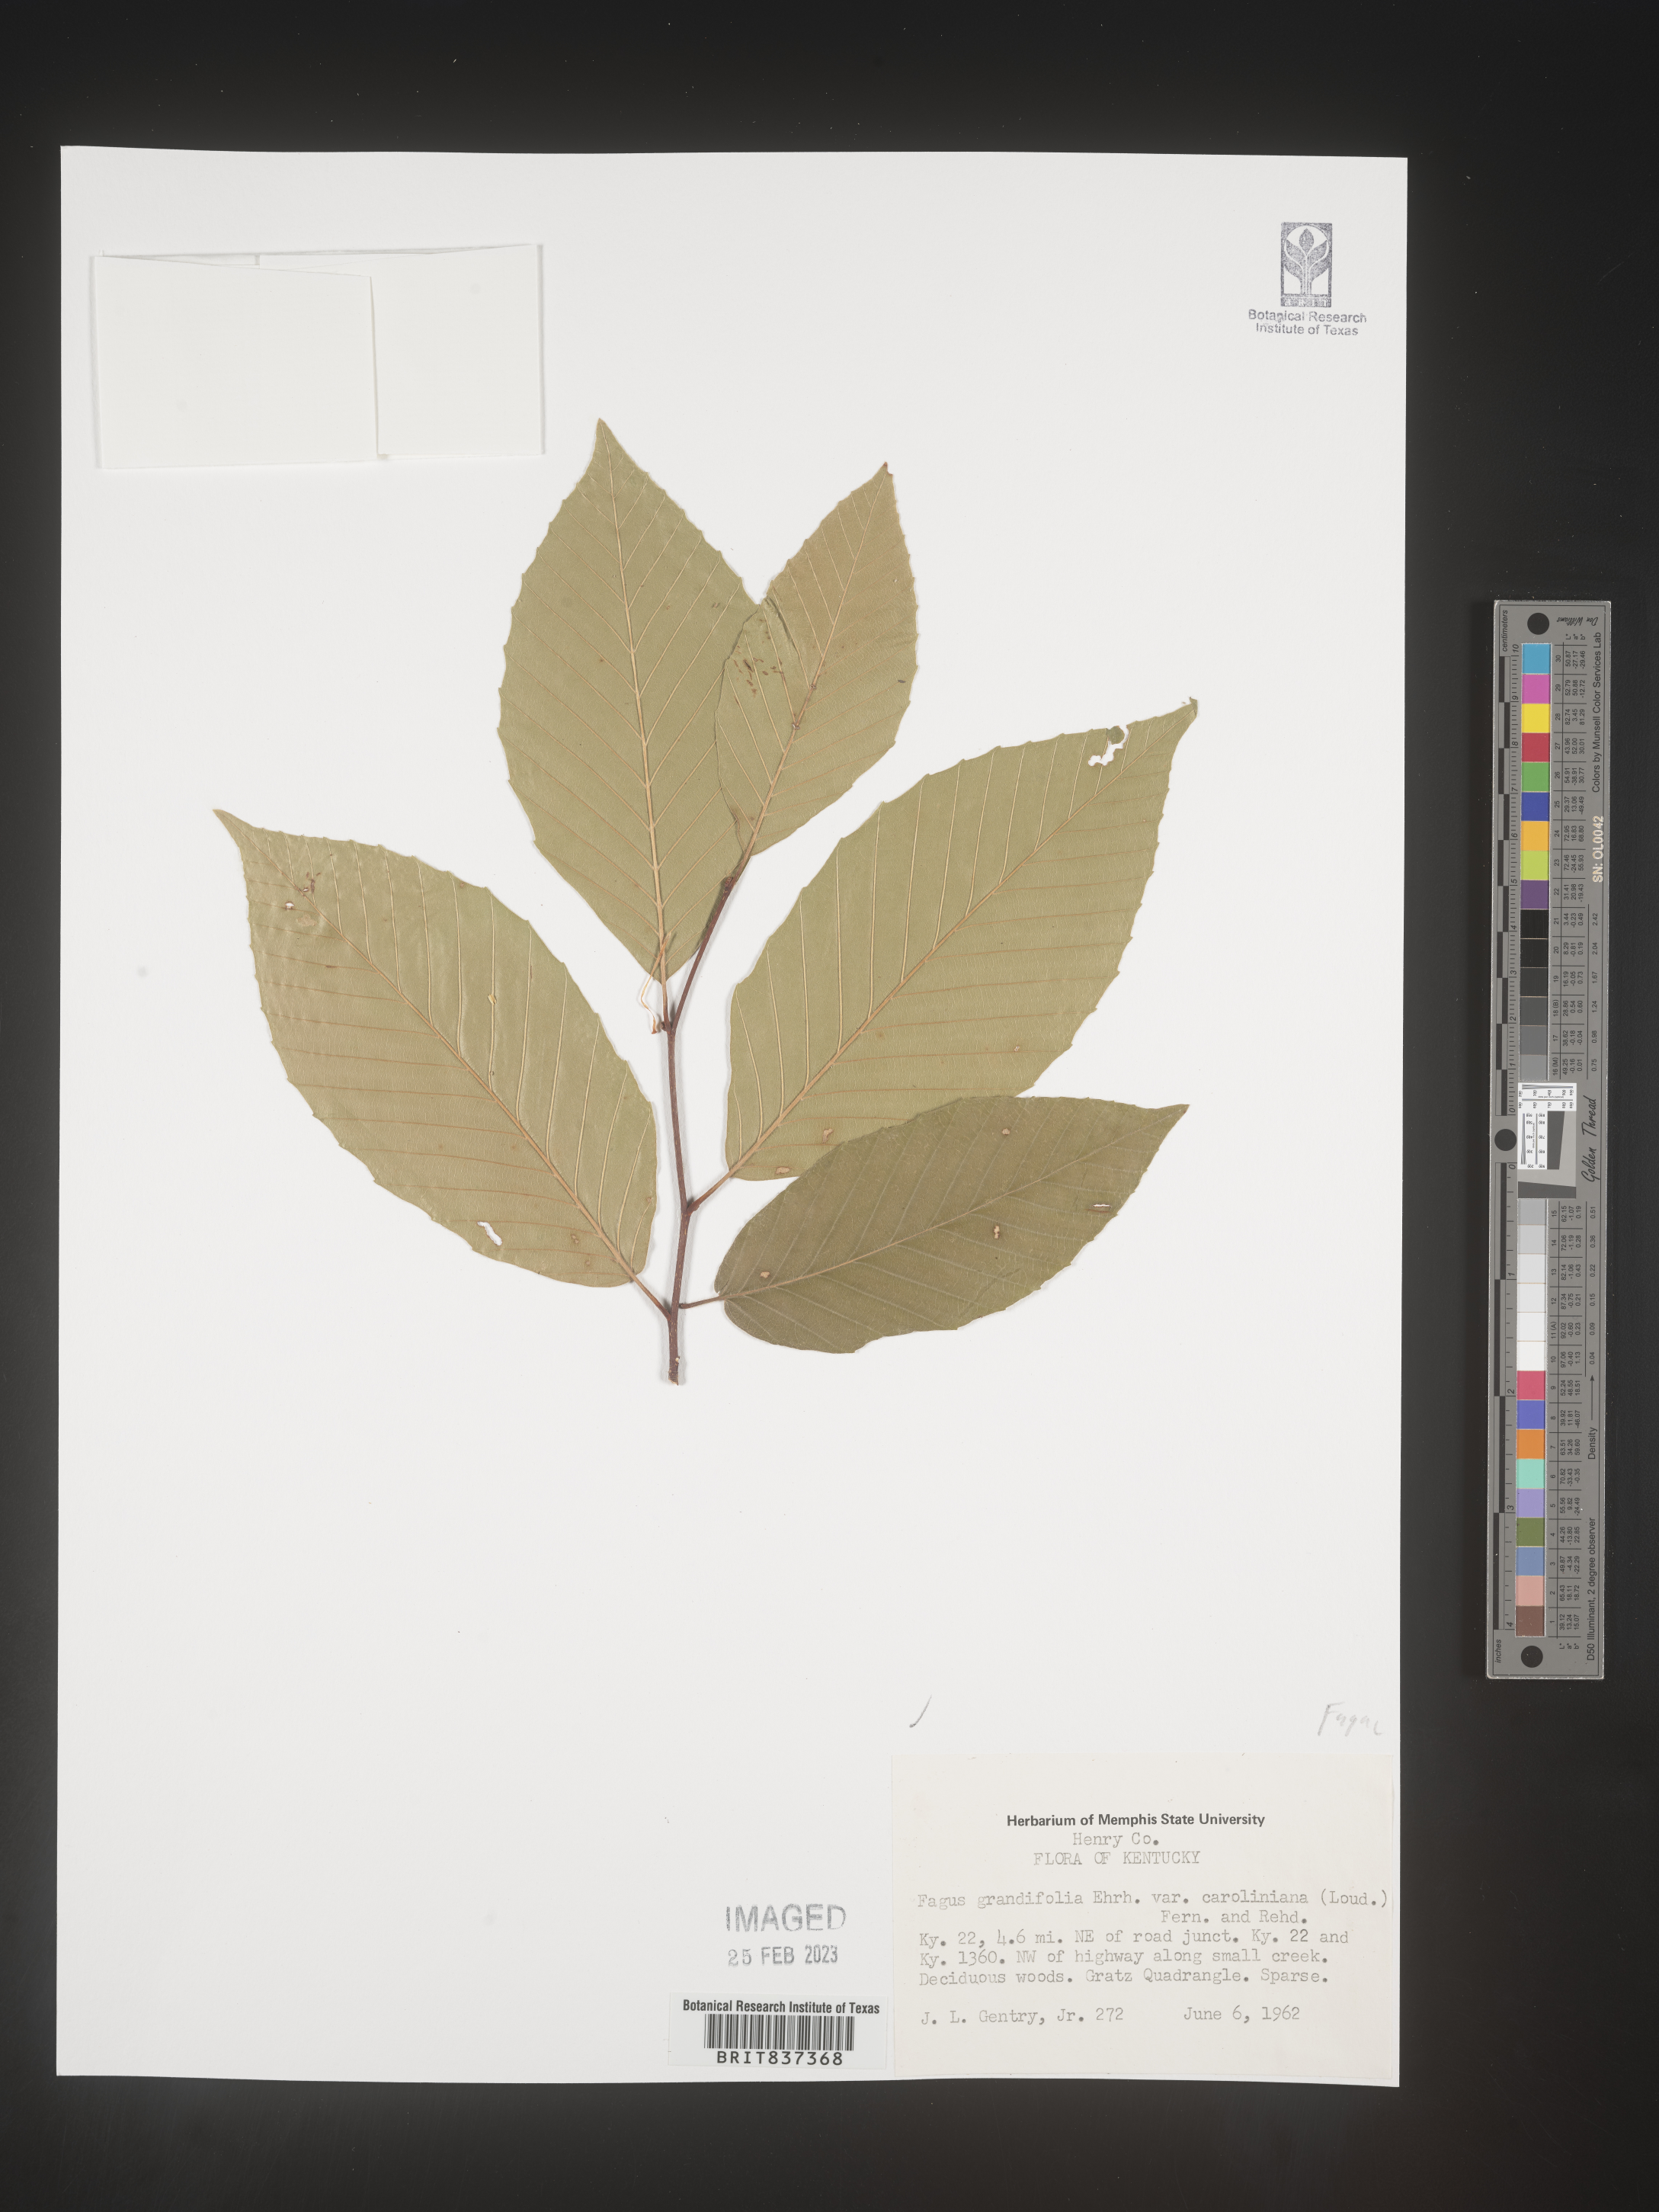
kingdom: Plantae
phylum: Tracheophyta
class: Magnoliopsida
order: Fagales
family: Fagaceae
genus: Fagus
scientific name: Fagus grandifolia
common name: American beech
